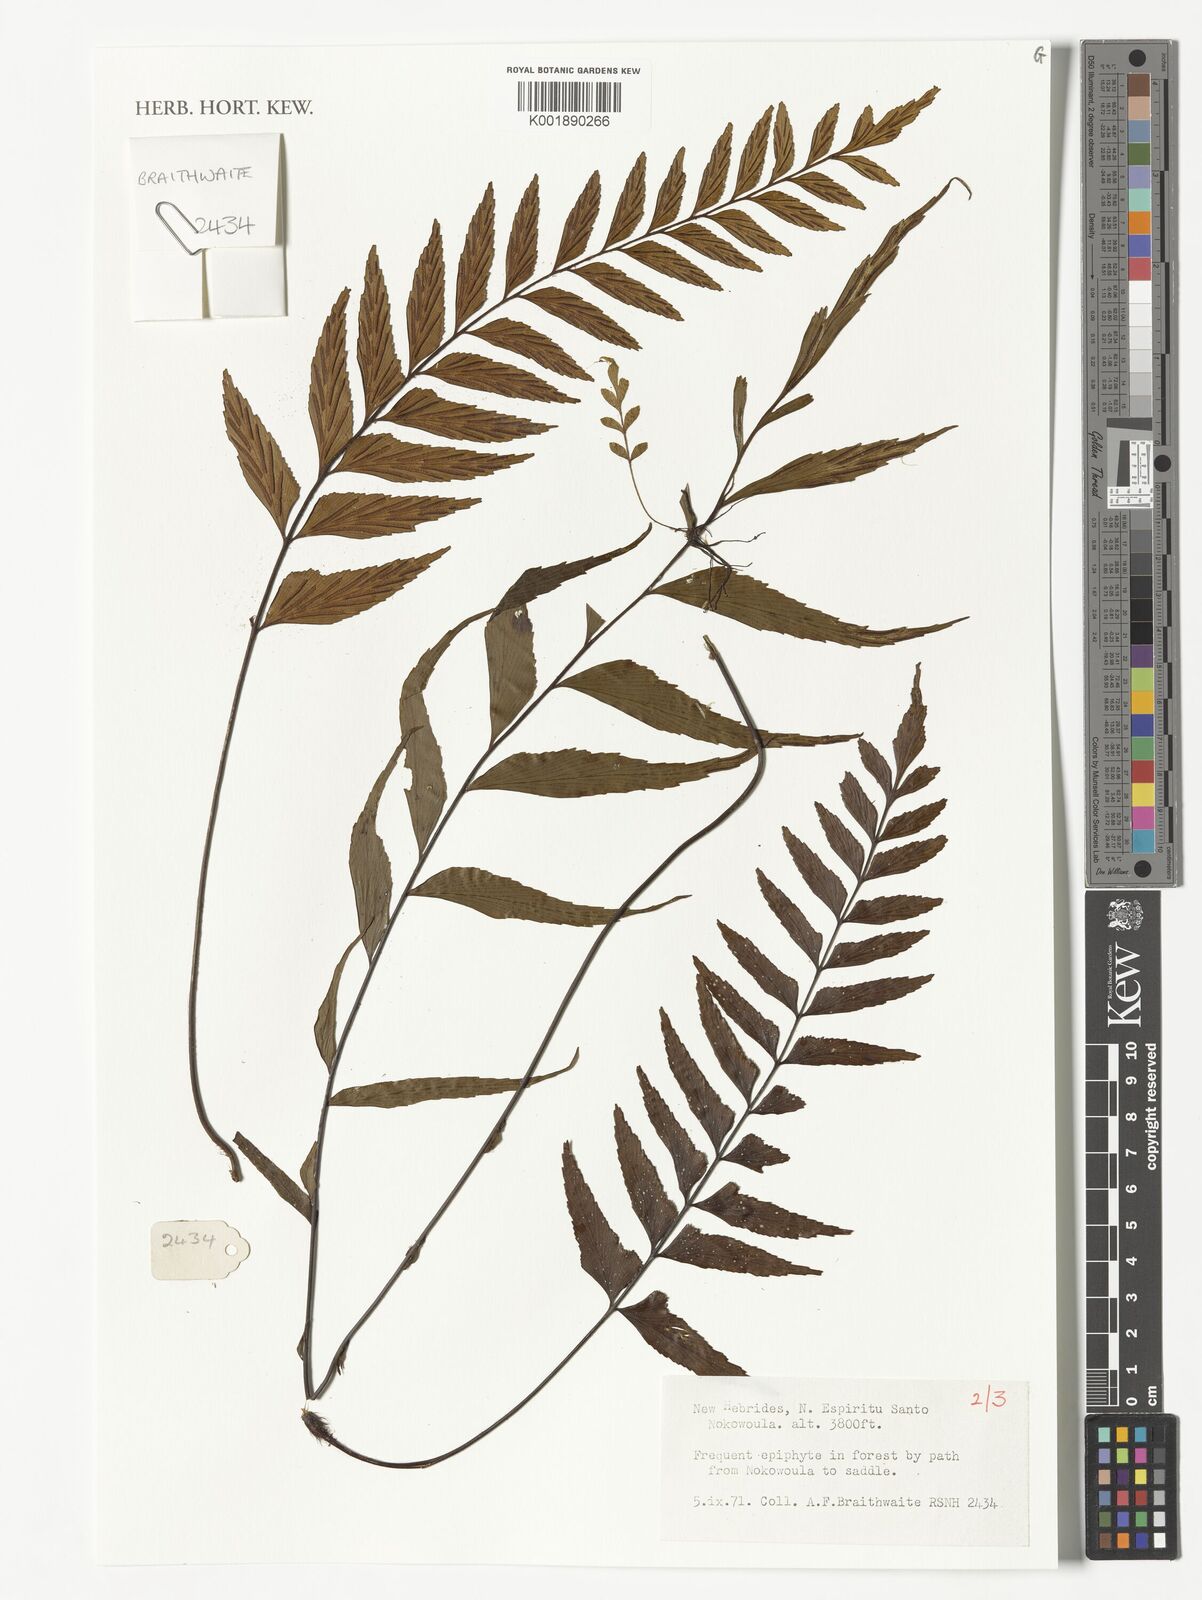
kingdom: Plantae
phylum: Tracheophyta
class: Polypodiopsida
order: Polypodiales
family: Aspleniaceae
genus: Asplenium
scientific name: Asplenium
